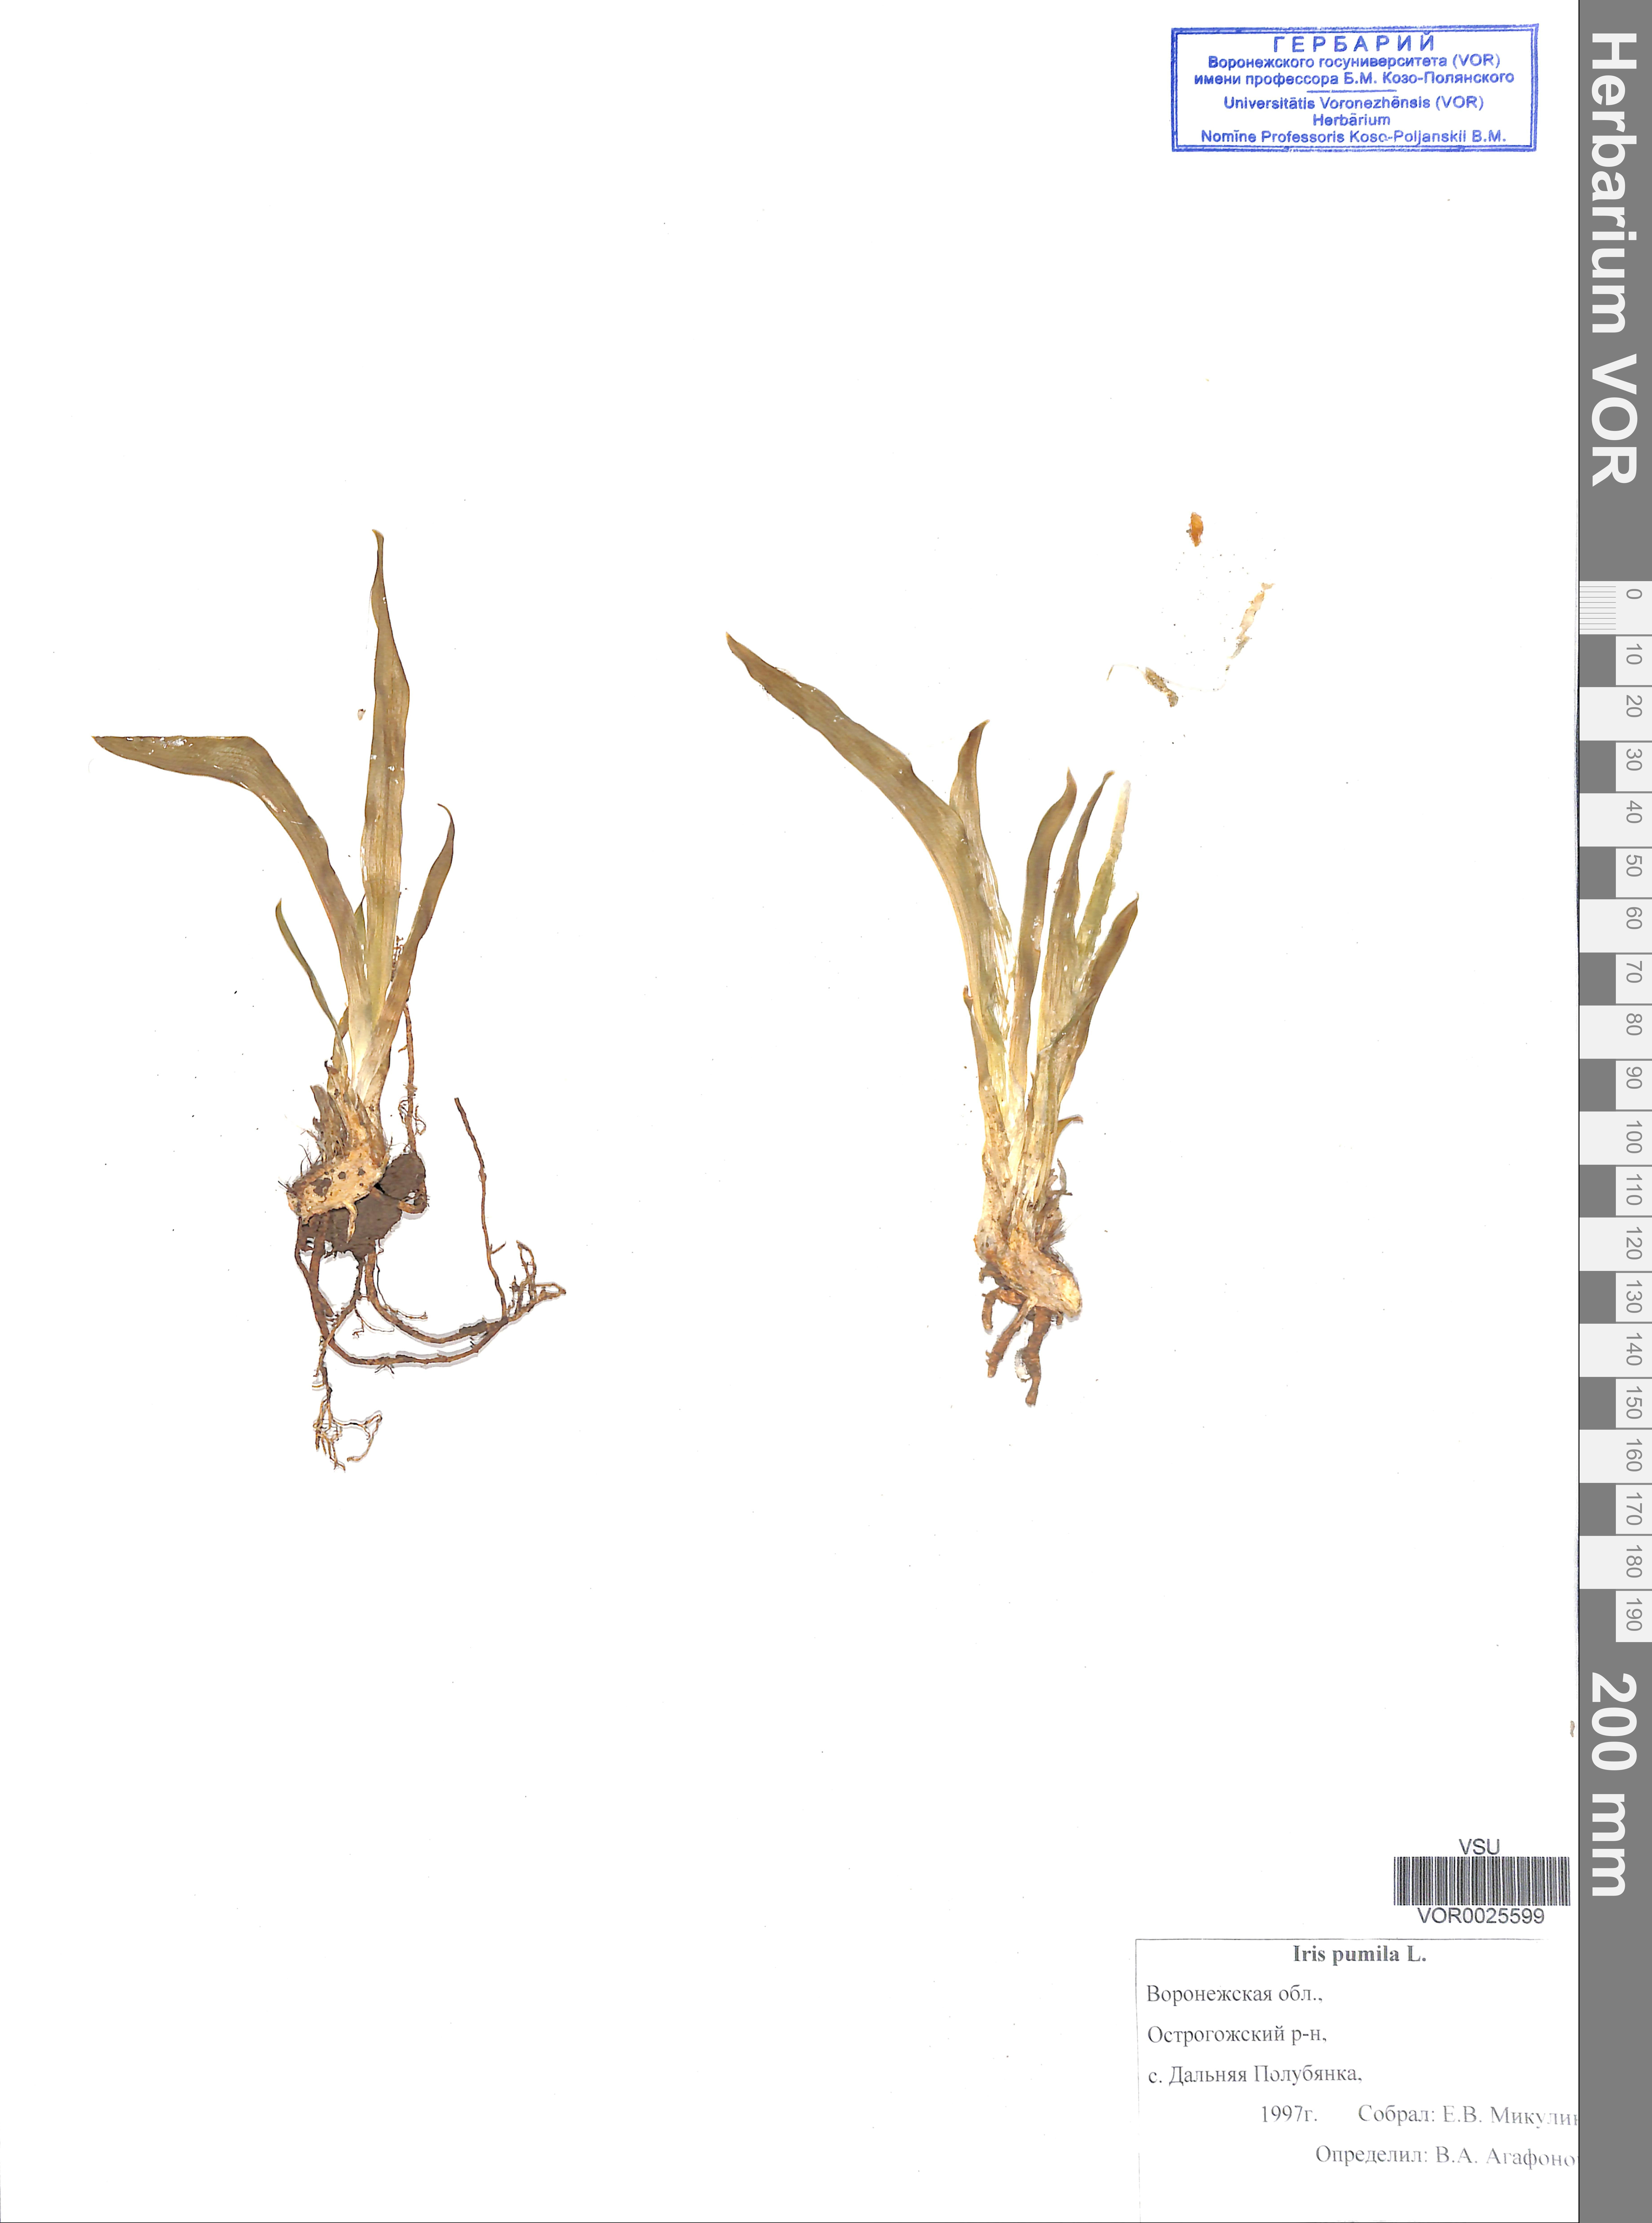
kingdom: Plantae
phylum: Tracheophyta
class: Liliopsida
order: Asparagales
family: Iridaceae
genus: Iris
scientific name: Iris pumila
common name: Dwarf iris
